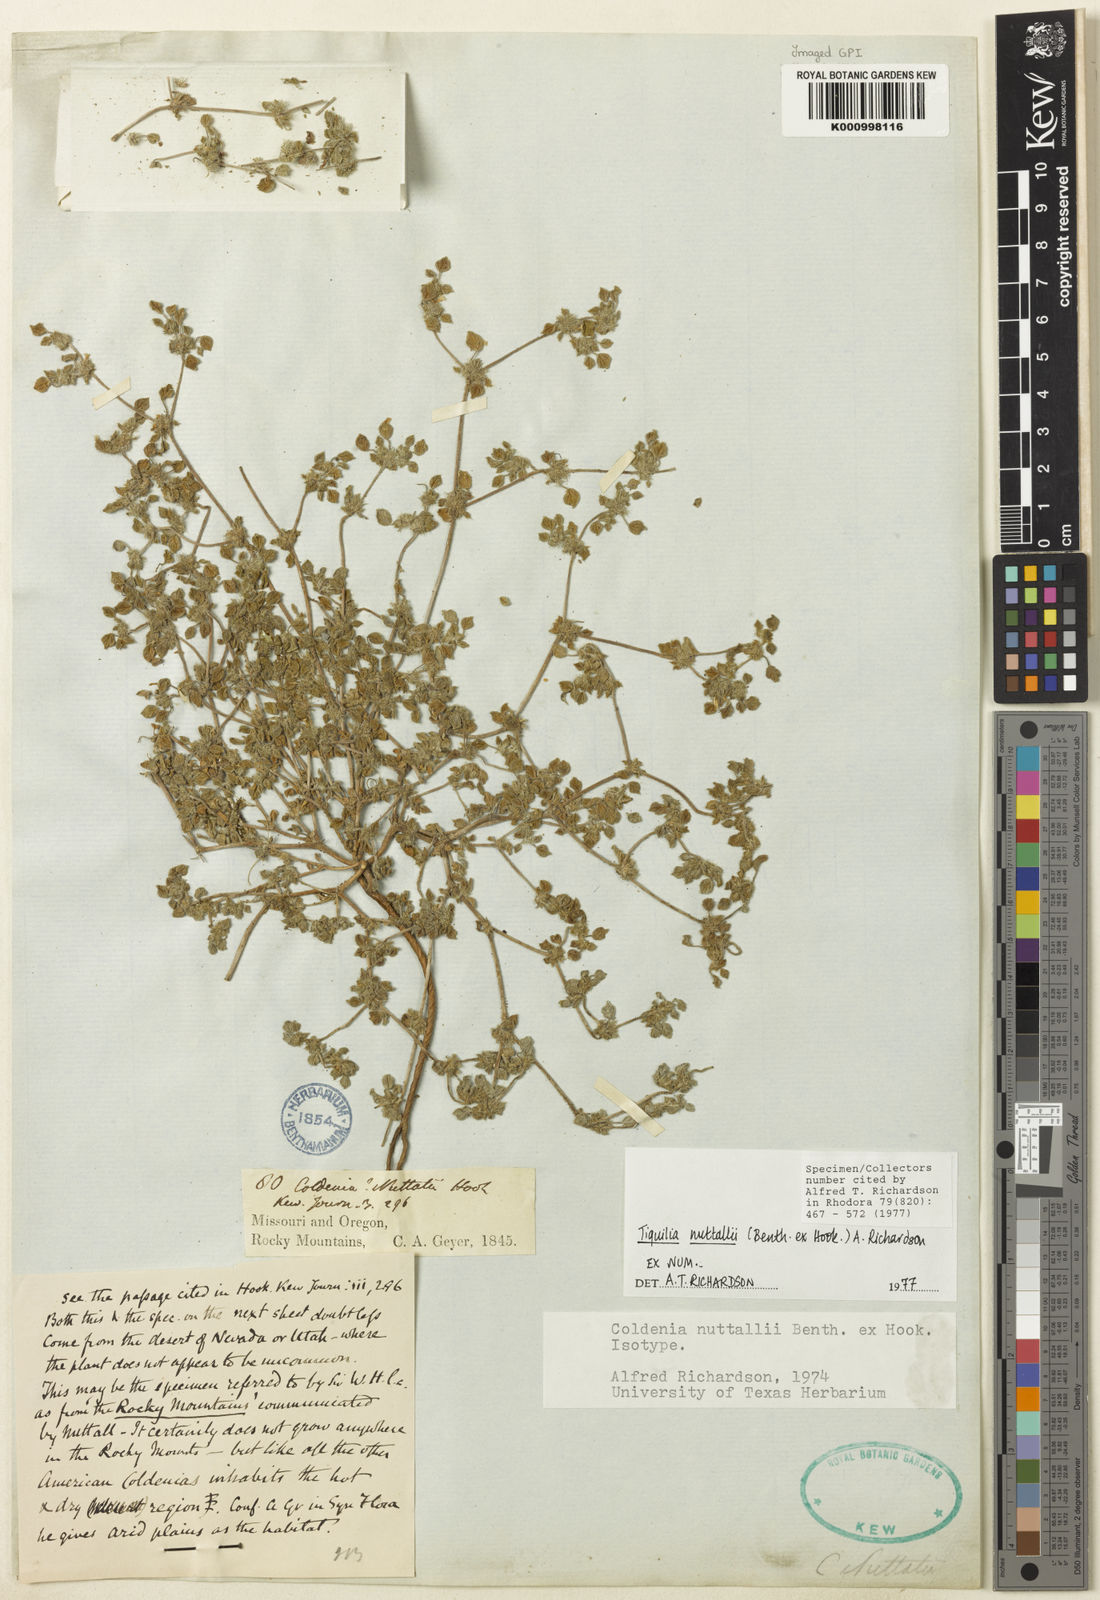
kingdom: Plantae
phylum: Tracheophyta
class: Magnoliopsida
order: Boraginales
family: Ehretiaceae
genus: Tiquilia
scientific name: Tiquilia nuttallii
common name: Rosette tiquilia
